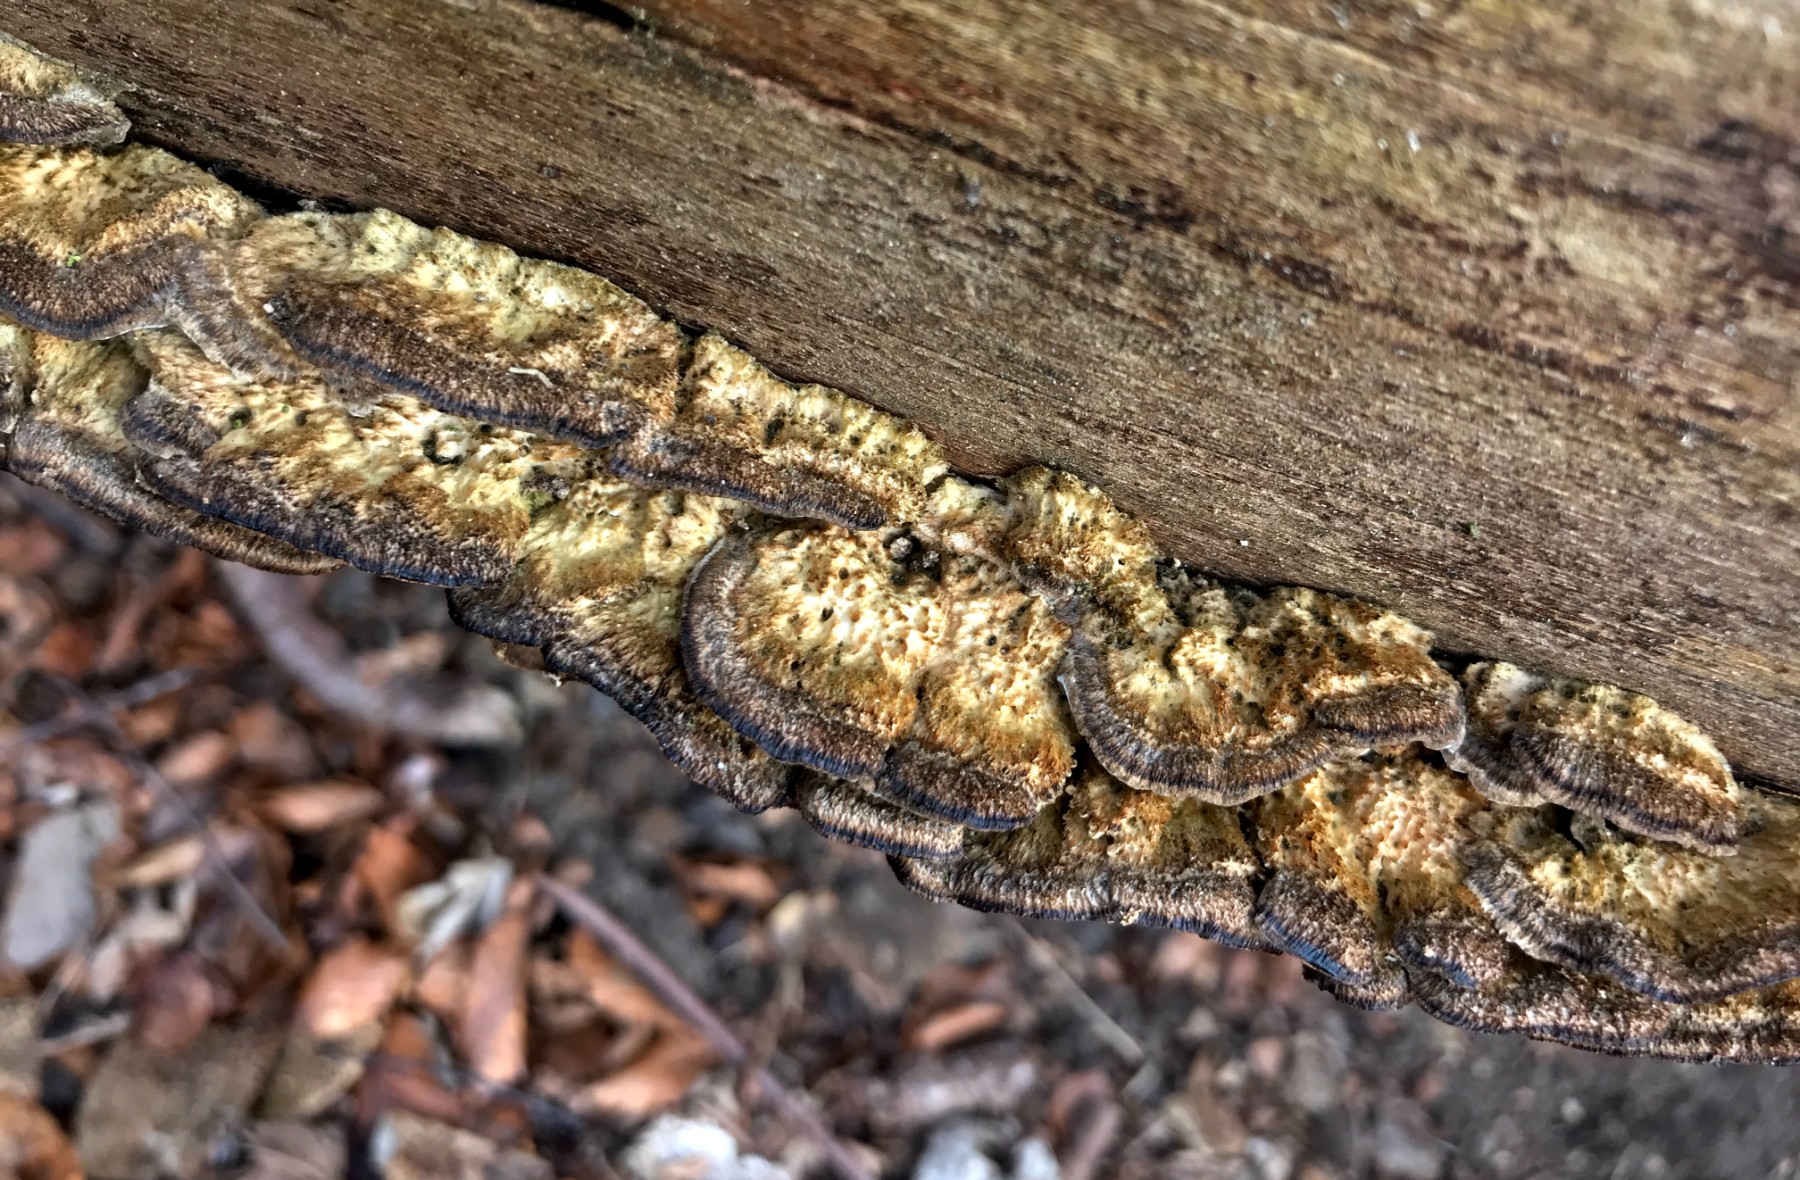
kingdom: Fungi
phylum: Basidiomycota
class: Agaricomycetes
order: Polyporales
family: Phanerochaetaceae
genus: Bjerkandera
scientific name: Bjerkandera adusta
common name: sveden sodporesvamp
